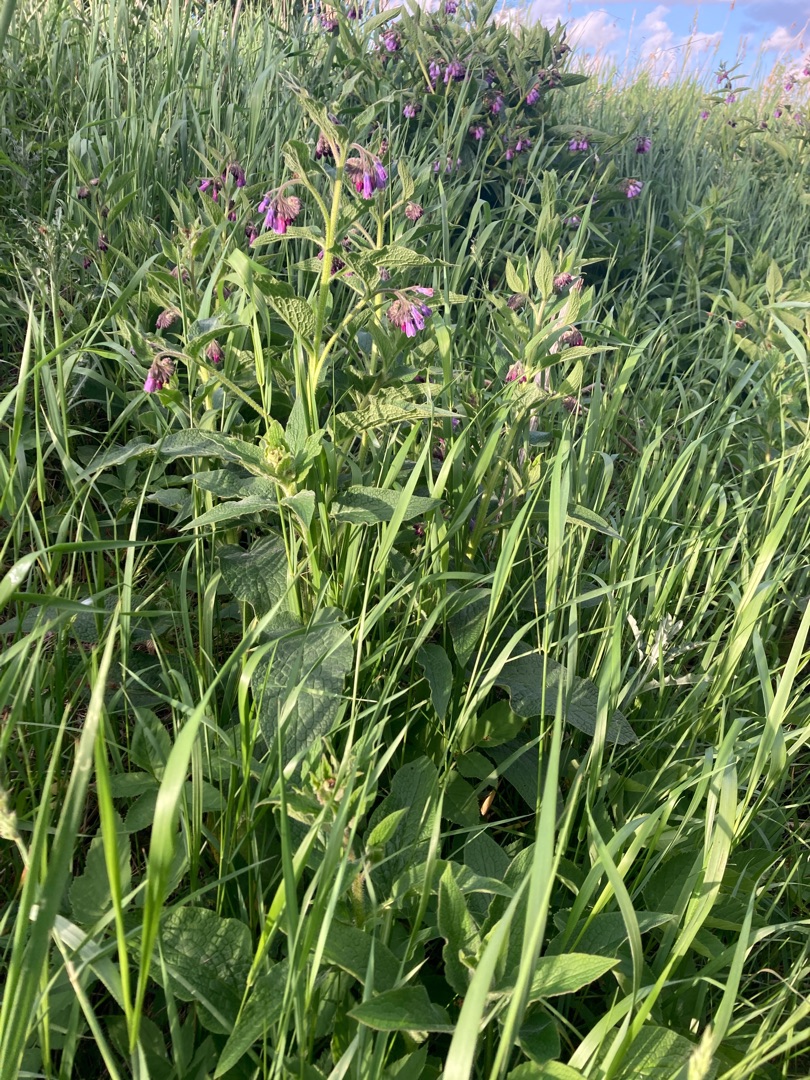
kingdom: Plantae
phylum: Tracheophyta
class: Magnoliopsida
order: Boraginales
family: Boraginaceae
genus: Symphytum
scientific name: Symphytum uplandicum
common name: Foder-kulsukker
